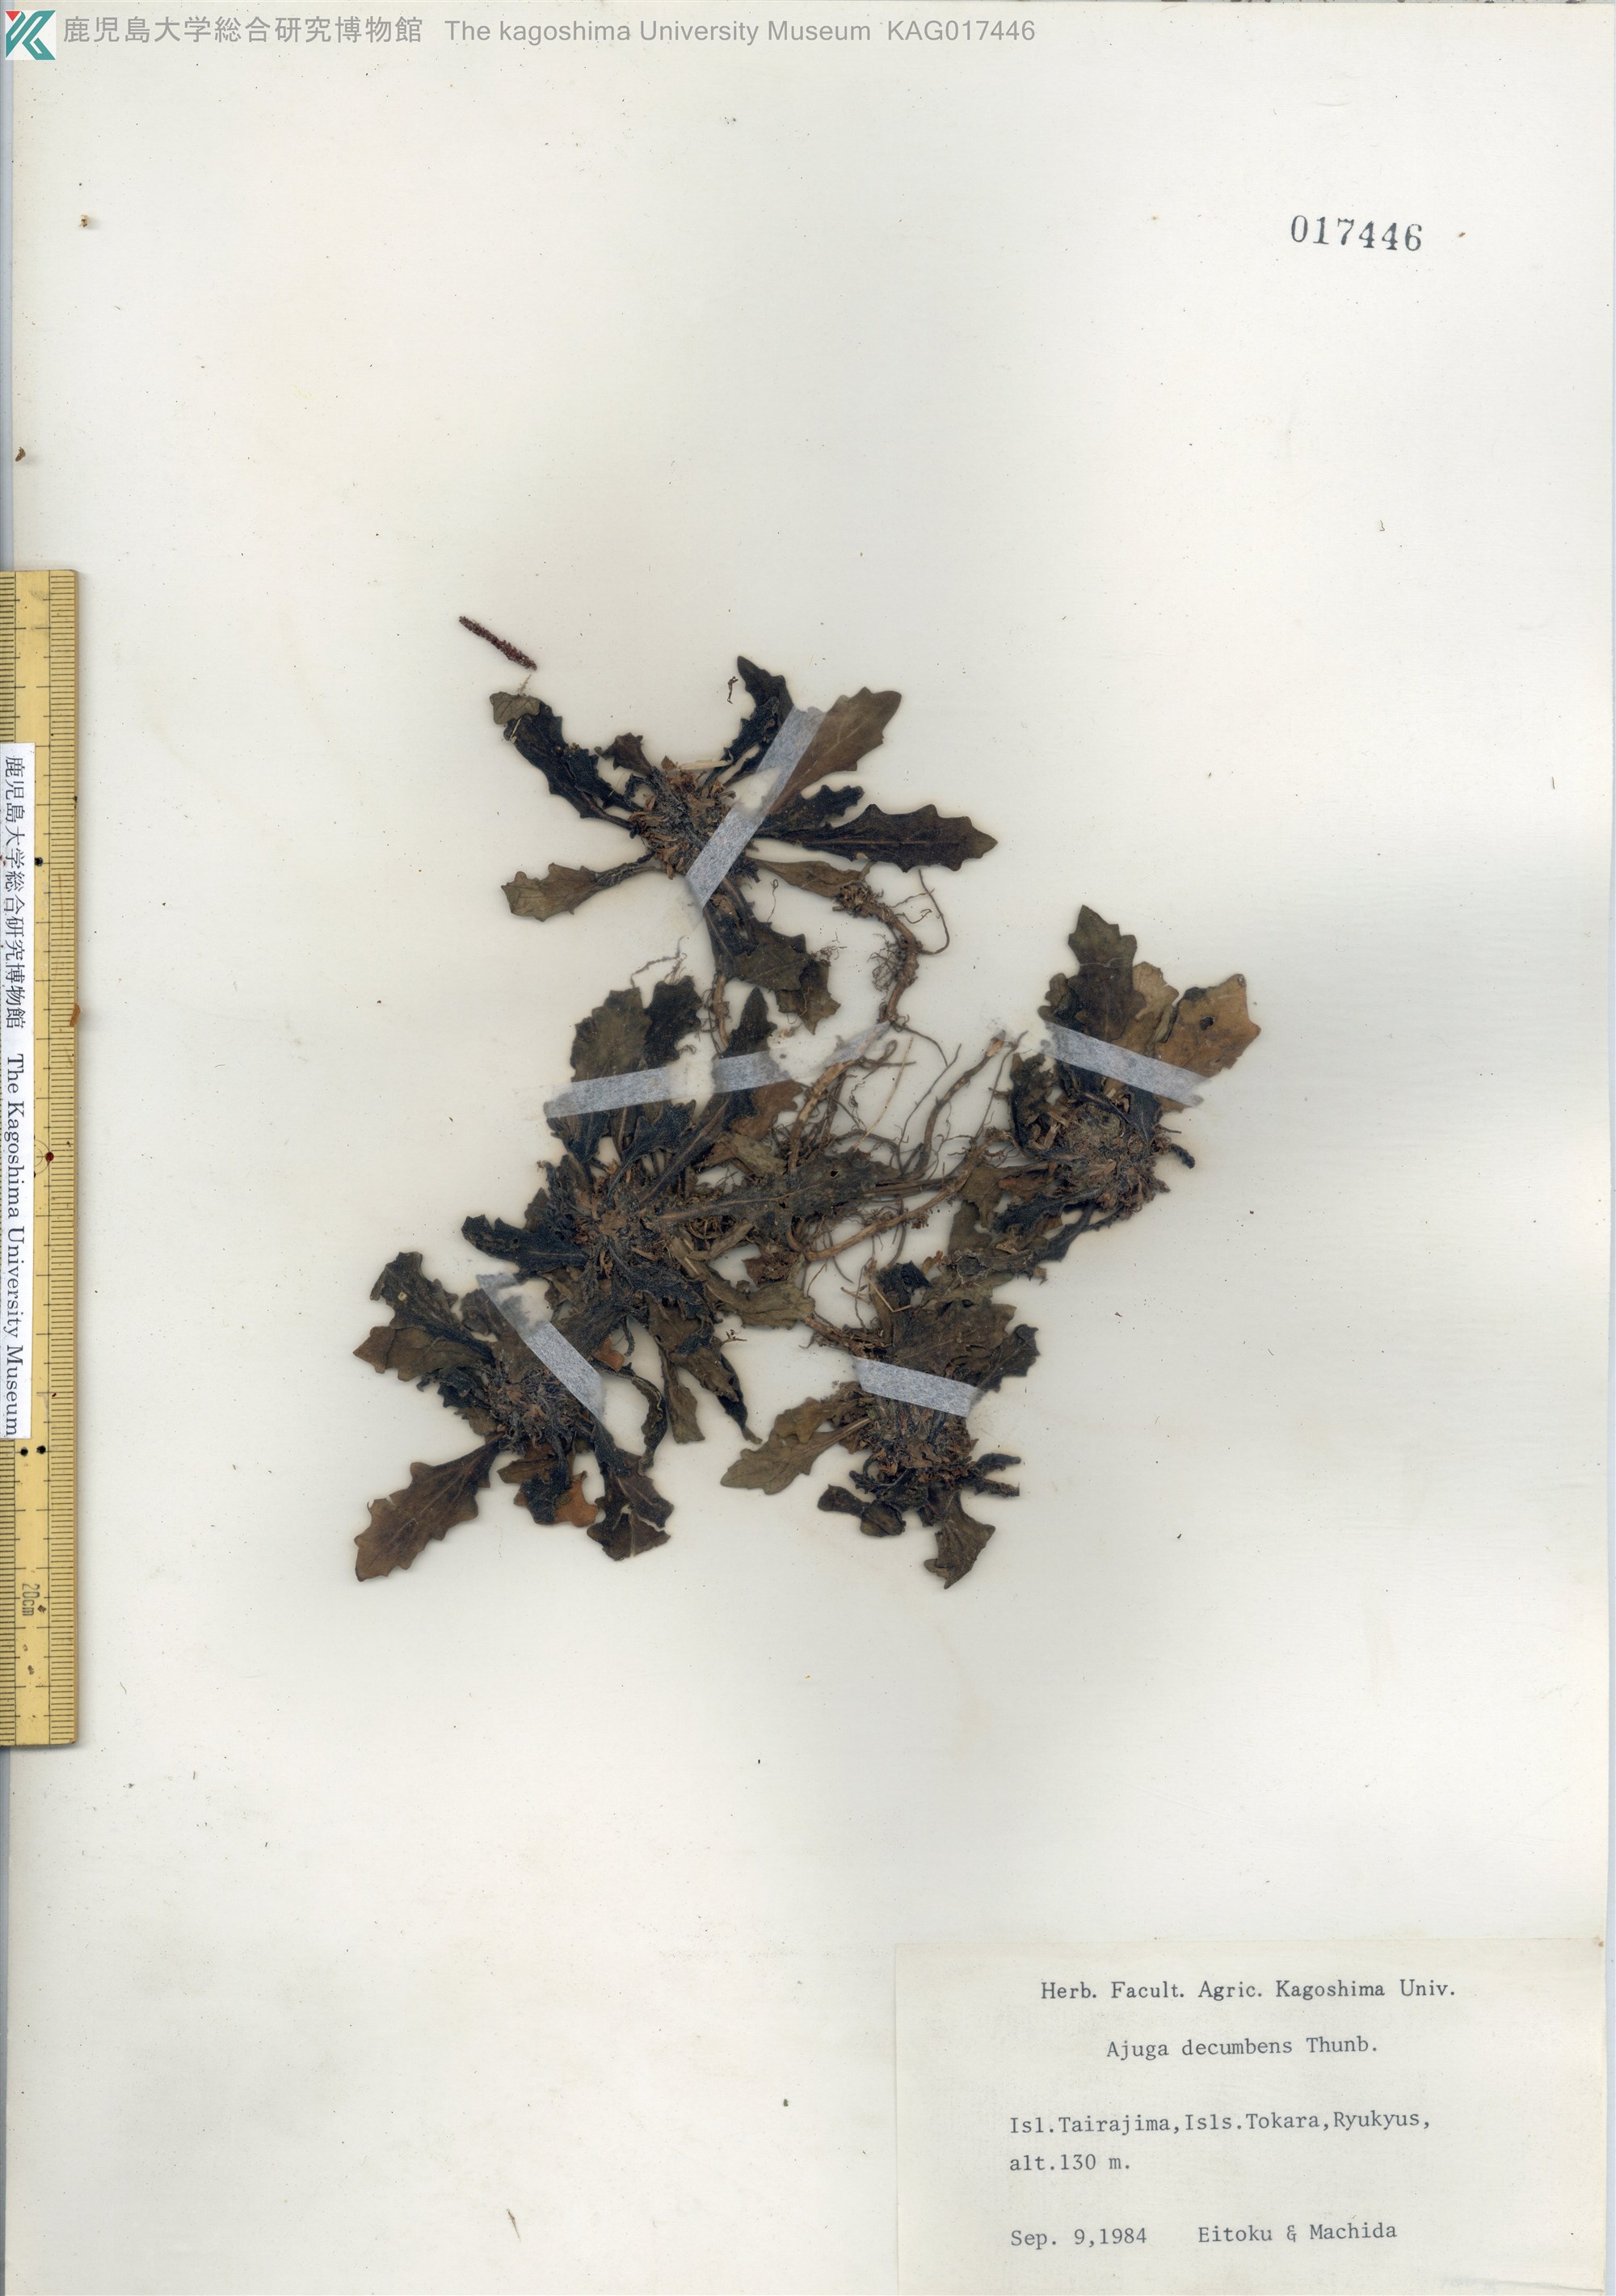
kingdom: Plantae
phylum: Tracheophyta
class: Magnoliopsida
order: Lamiales
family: Lamiaceae
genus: Ajuga
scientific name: Ajuga decumbens
